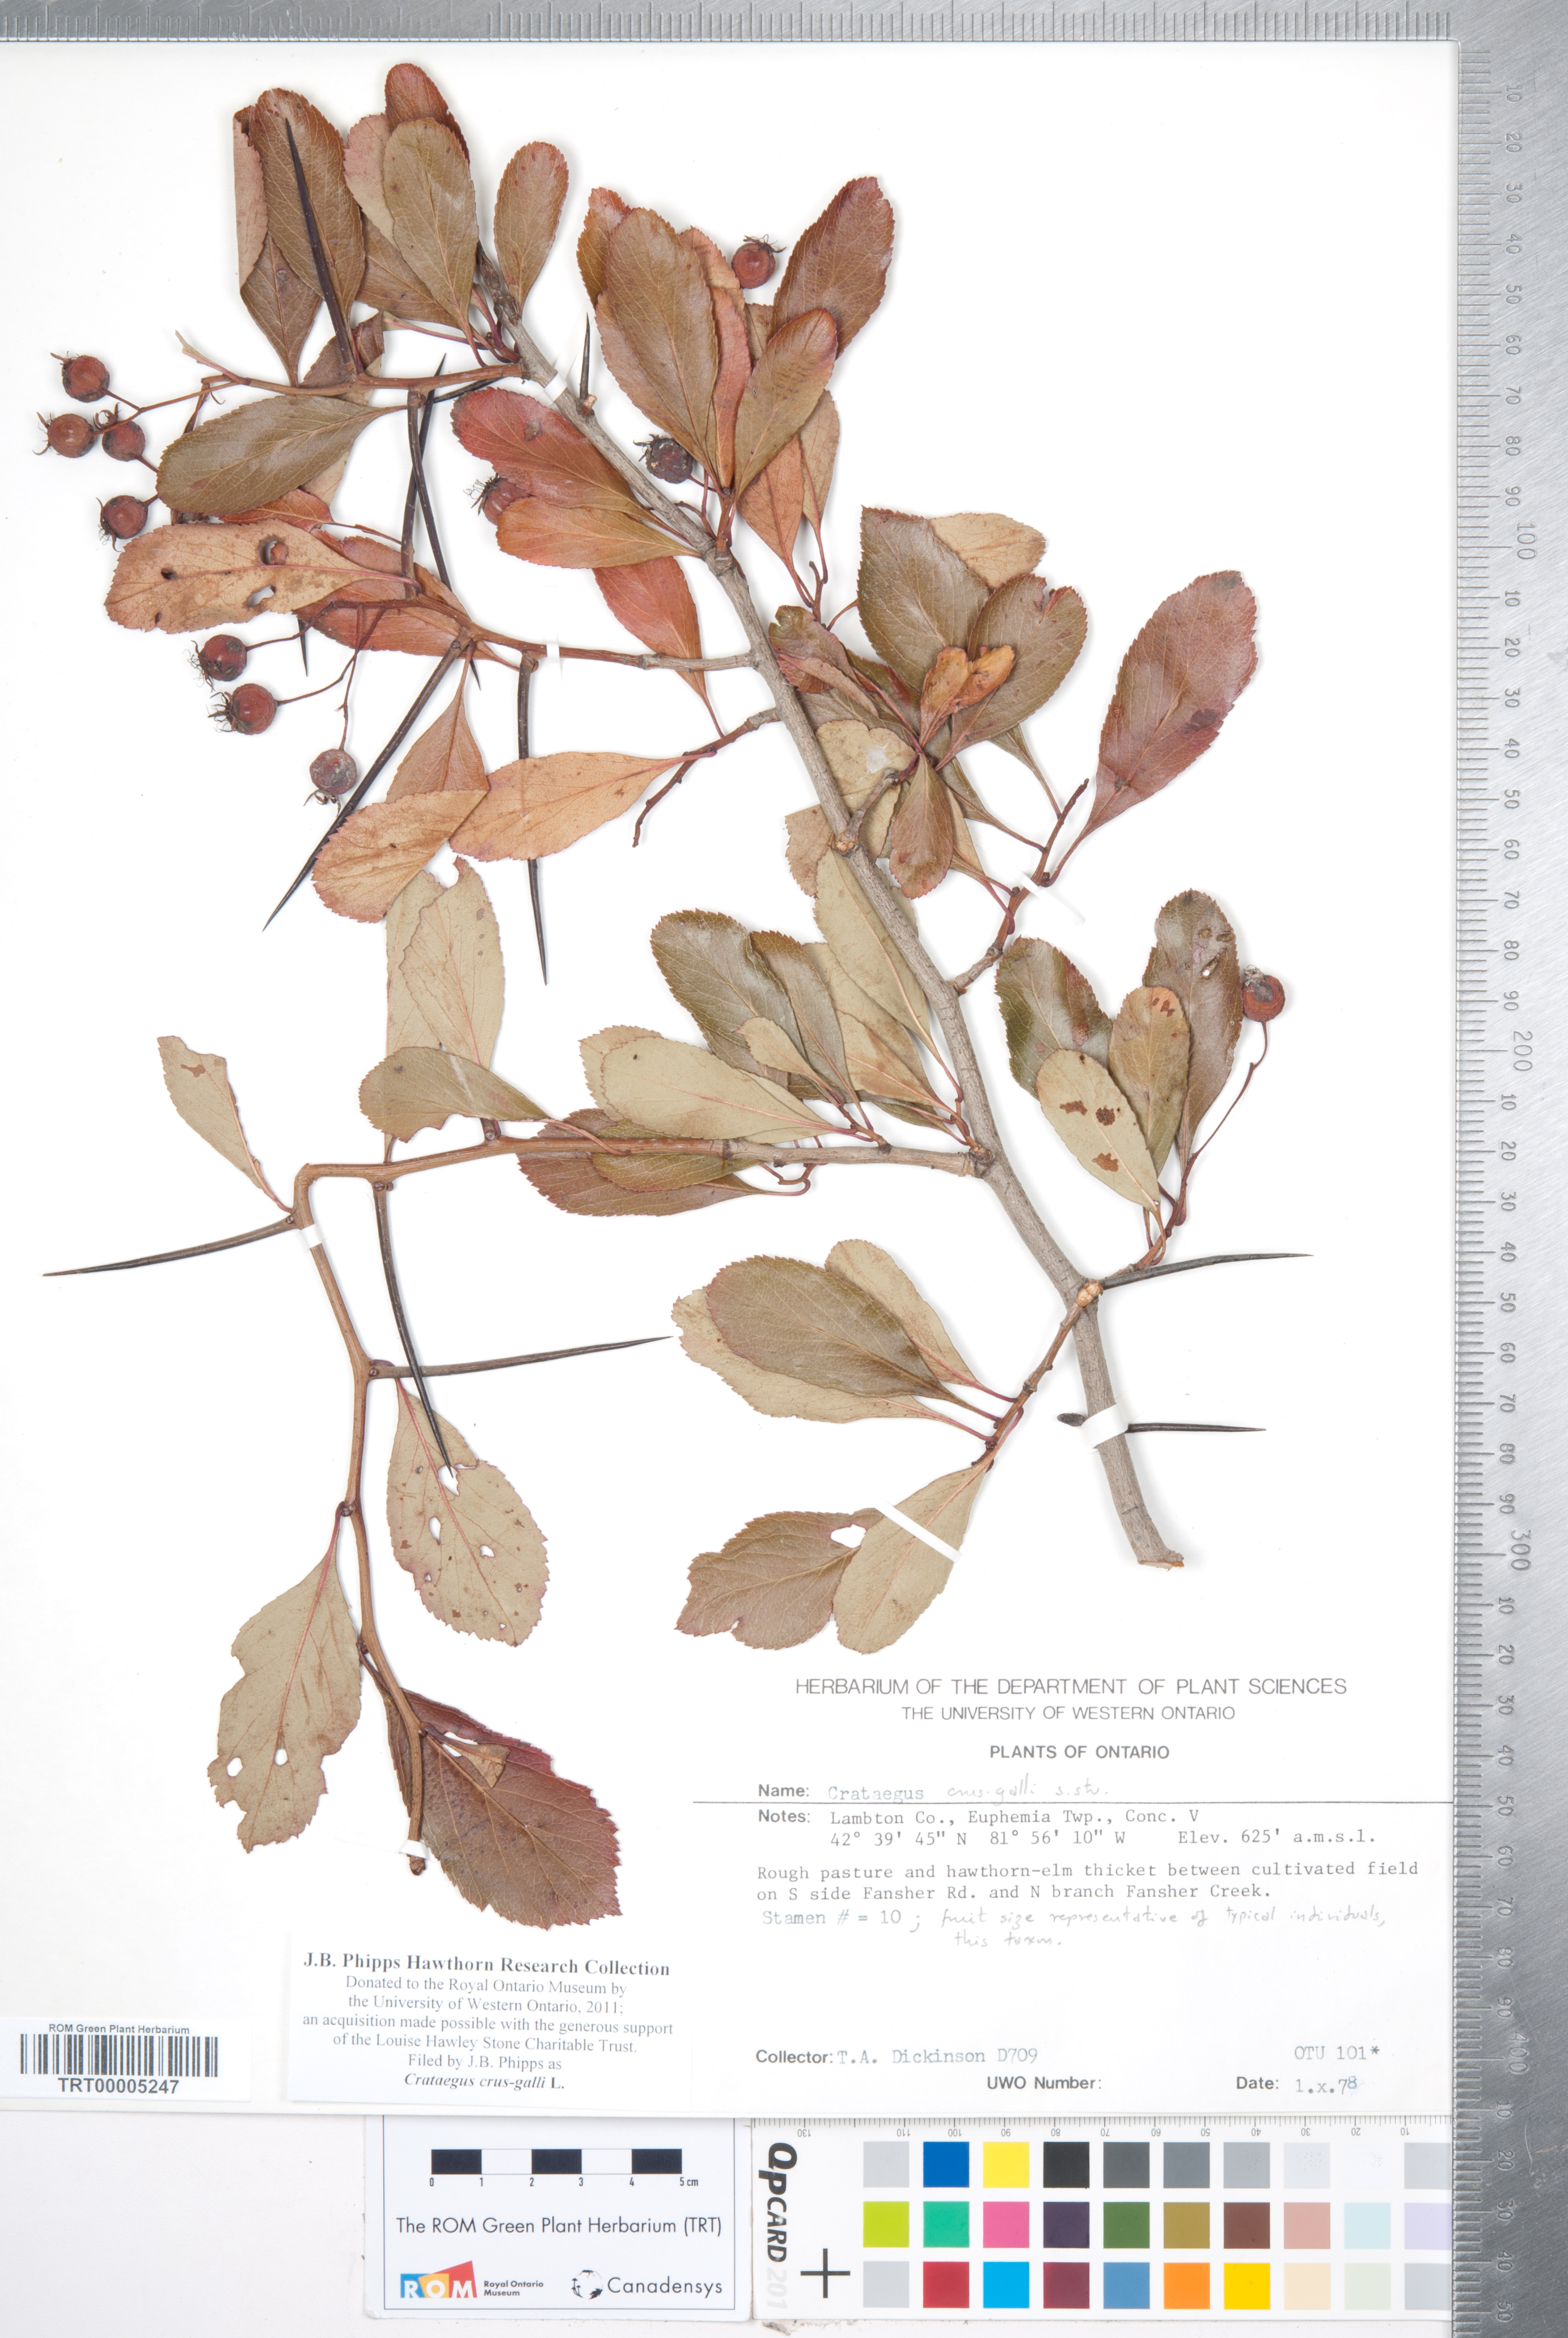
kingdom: Plantae
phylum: Tracheophyta
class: Magnoliopsida
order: Rosales
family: Rosaceae
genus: Crataegus
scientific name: Crataegus crus-galli
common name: Cockspurthorn
